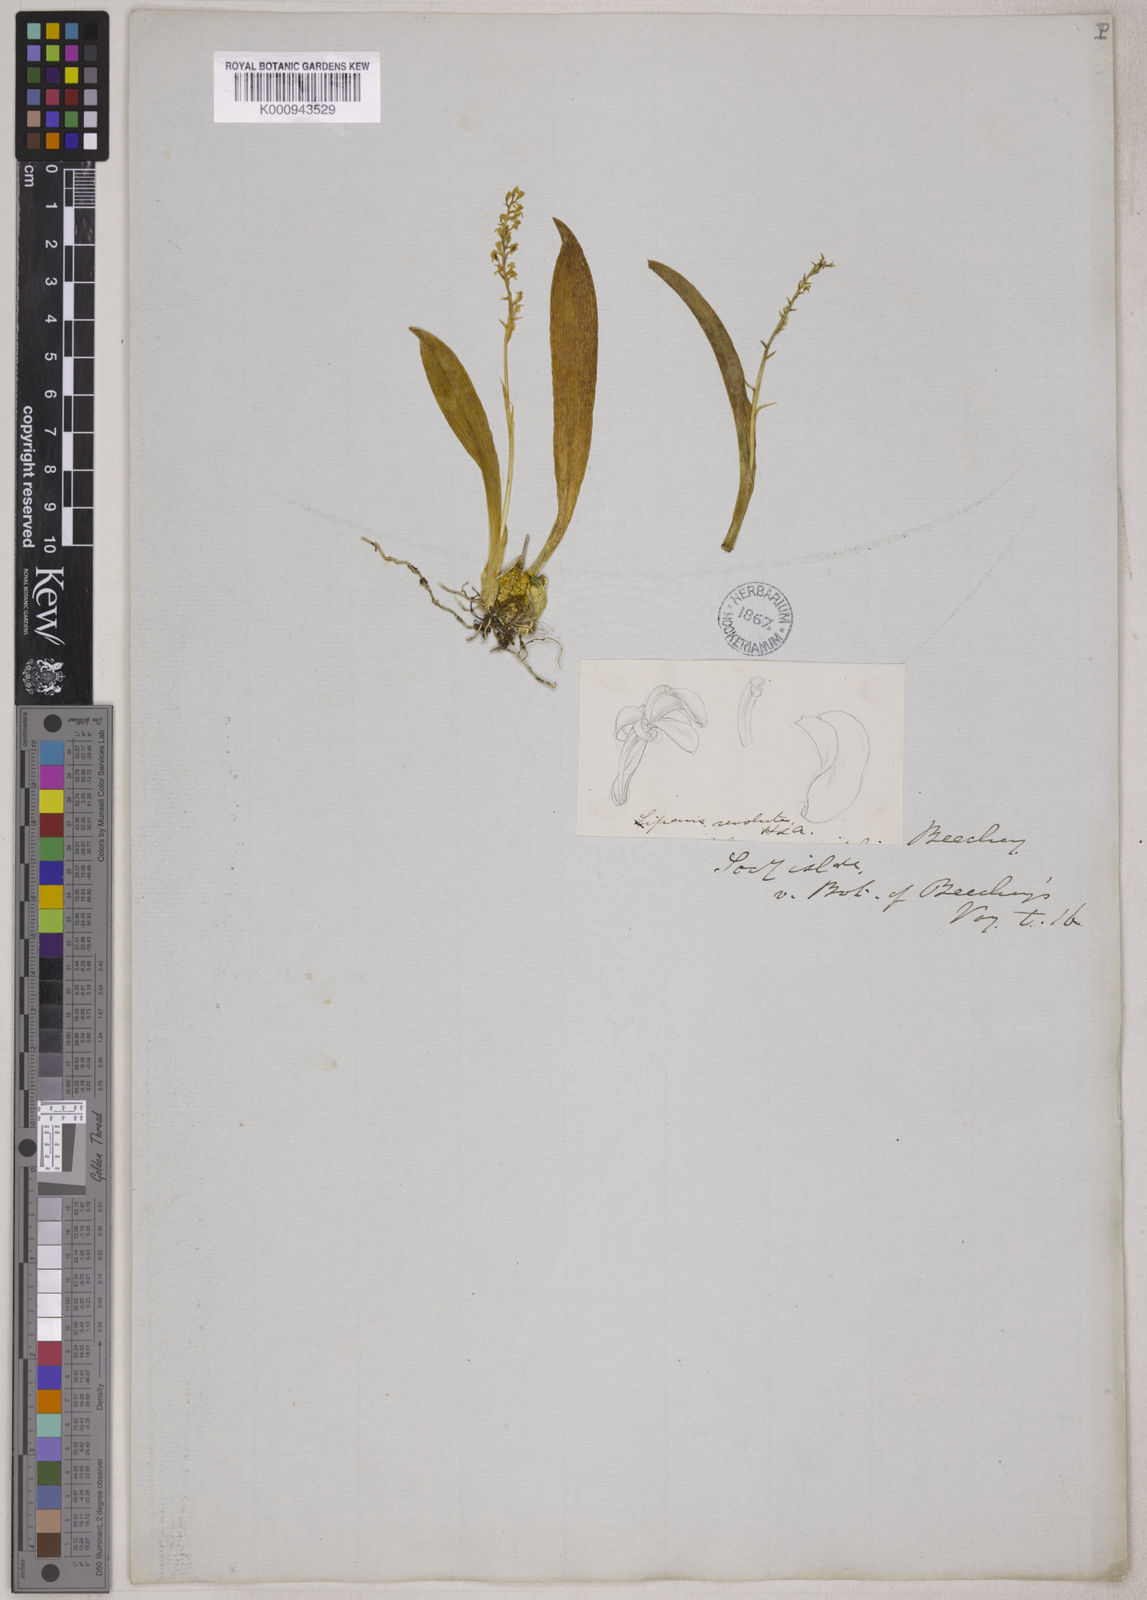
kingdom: Plantae
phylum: Tracheophyta
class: Liliopsida
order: Asparagales
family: Orchidaceae
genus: Liparis
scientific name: Liparis cespitosa
